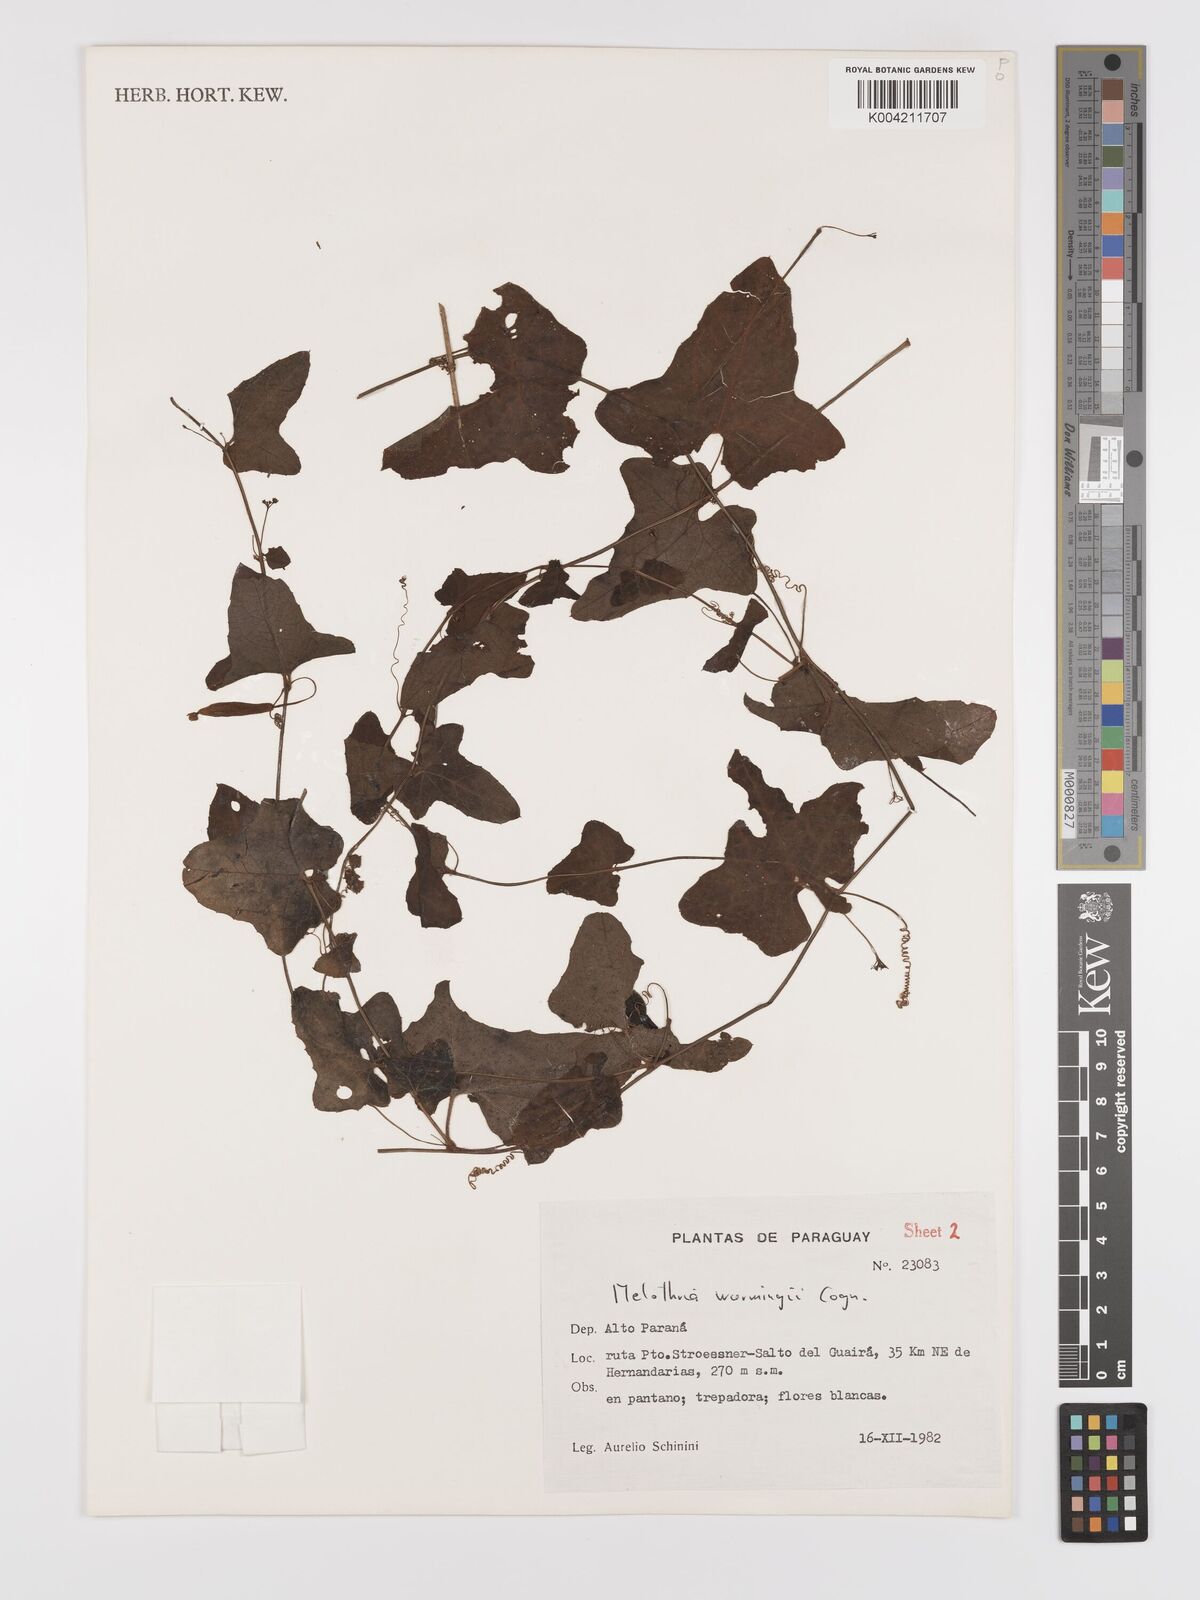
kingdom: Plantae
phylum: Tracheophyta
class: Magnoliopsida
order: Cucurbitales
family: Cucurbitaceae
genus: Melothria
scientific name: Melothria warmingii
